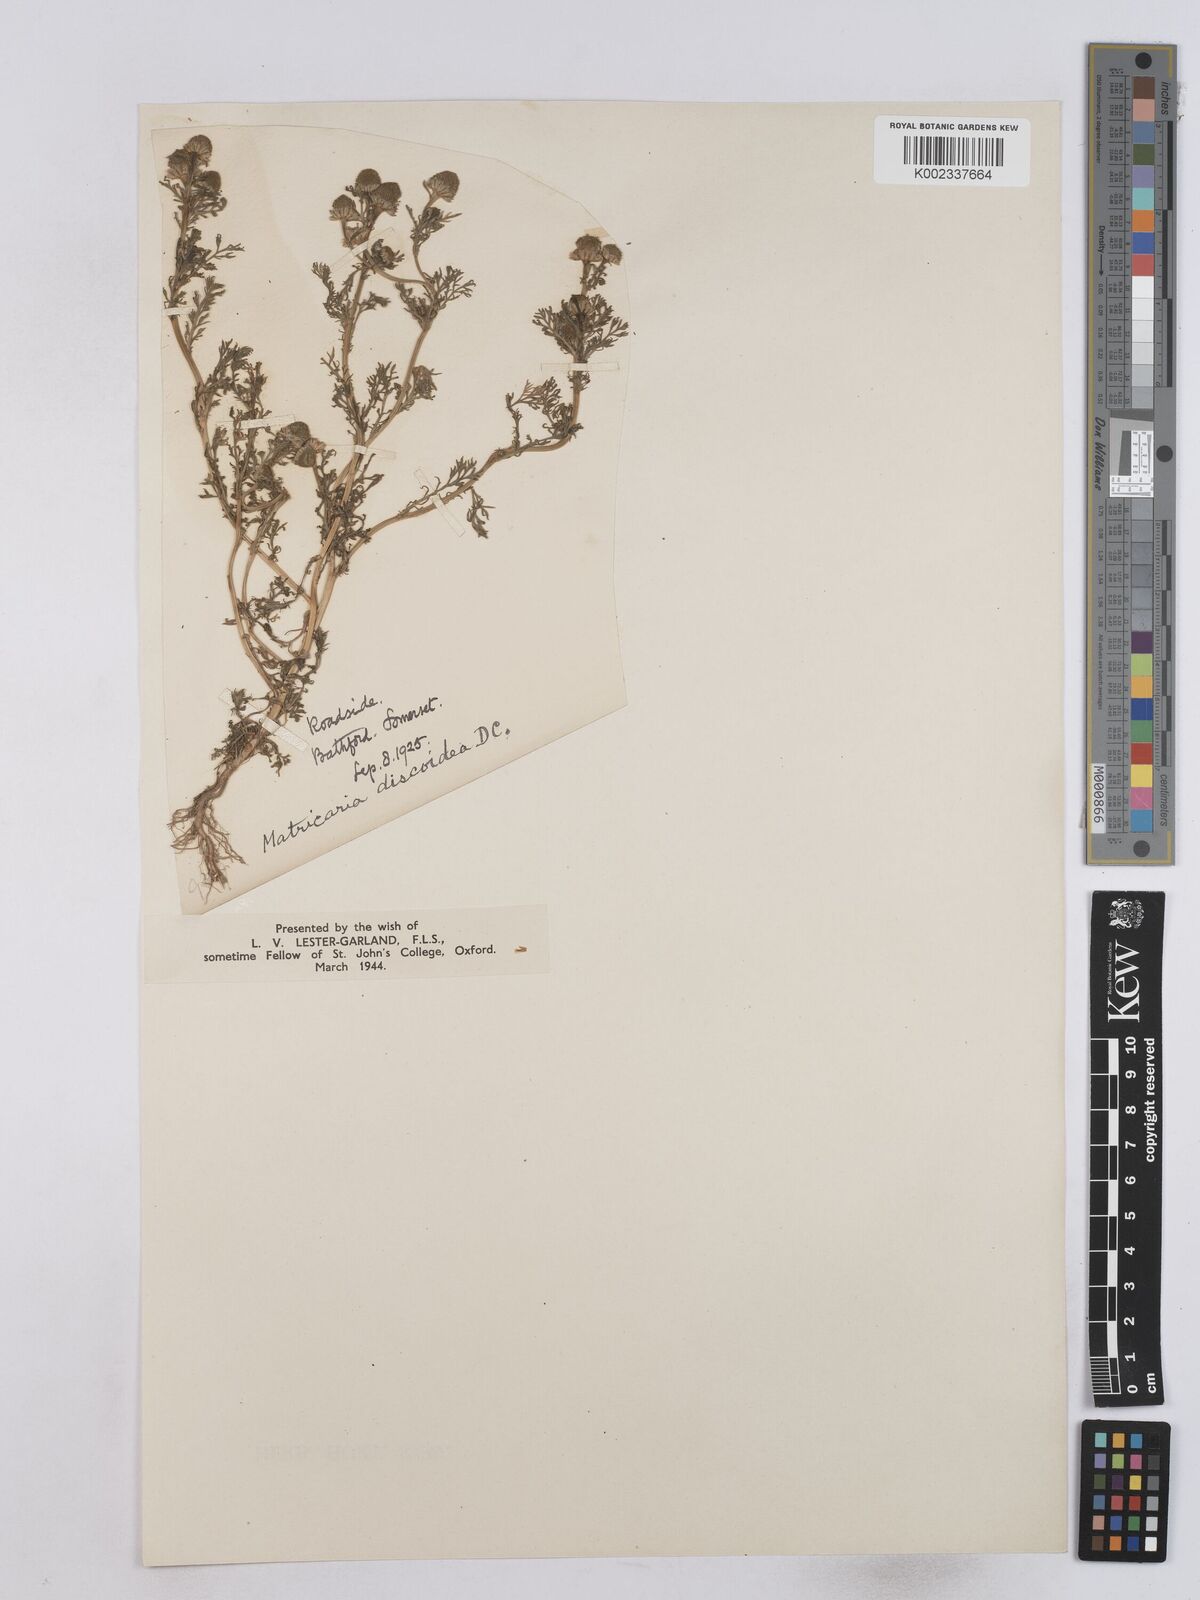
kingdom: Plantae
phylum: Tracheophyta
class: Magnoliopsida
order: Asterales
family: Asteraceae
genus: Matricaria
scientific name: Matricaria discoidea
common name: Disc mayweed
